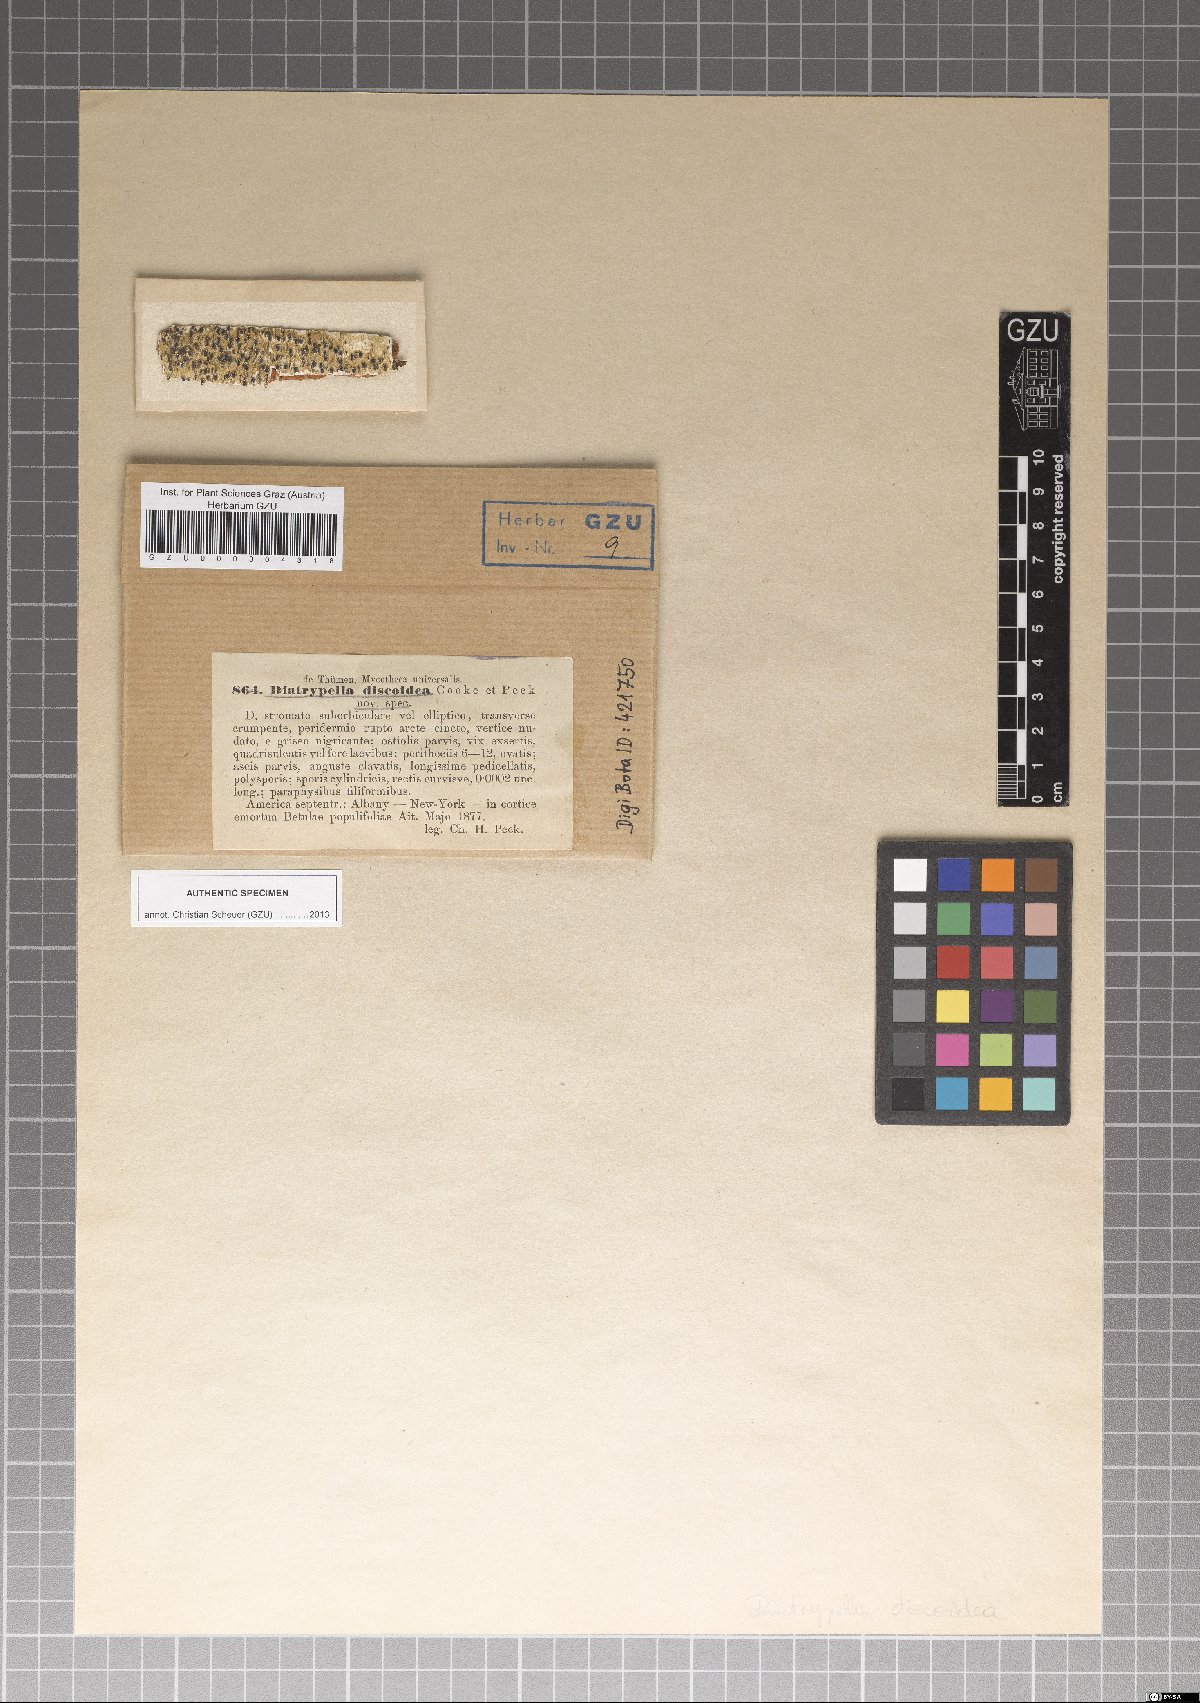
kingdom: Fungi
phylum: Ascomycota
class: Sordariomycetes
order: Xylariales
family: Diatrypaceae
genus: Diatrypella
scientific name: Diatrypella discoidea
